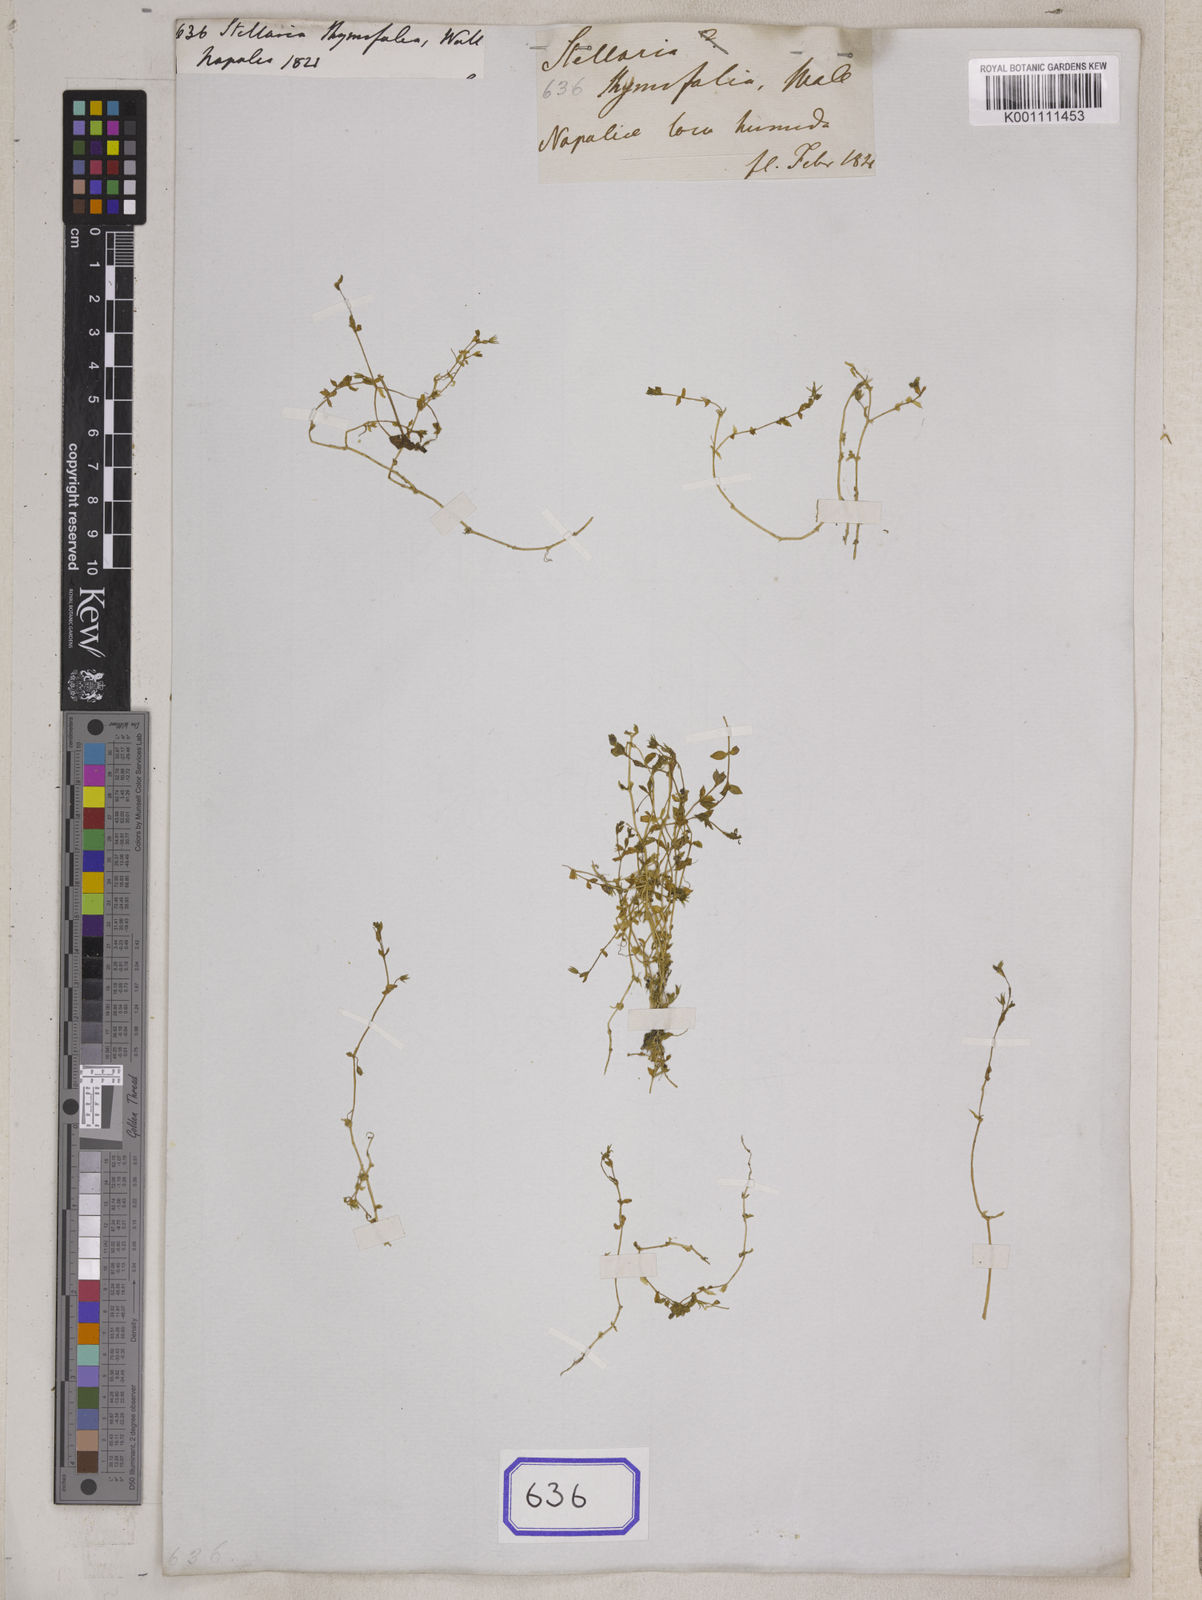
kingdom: Plantae
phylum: Tracheophyta
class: Magnoliopsida
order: Caryophyllales
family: Caryophyllaceae
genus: Stellaria
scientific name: Stellaria alsine
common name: Bog stitchwort
